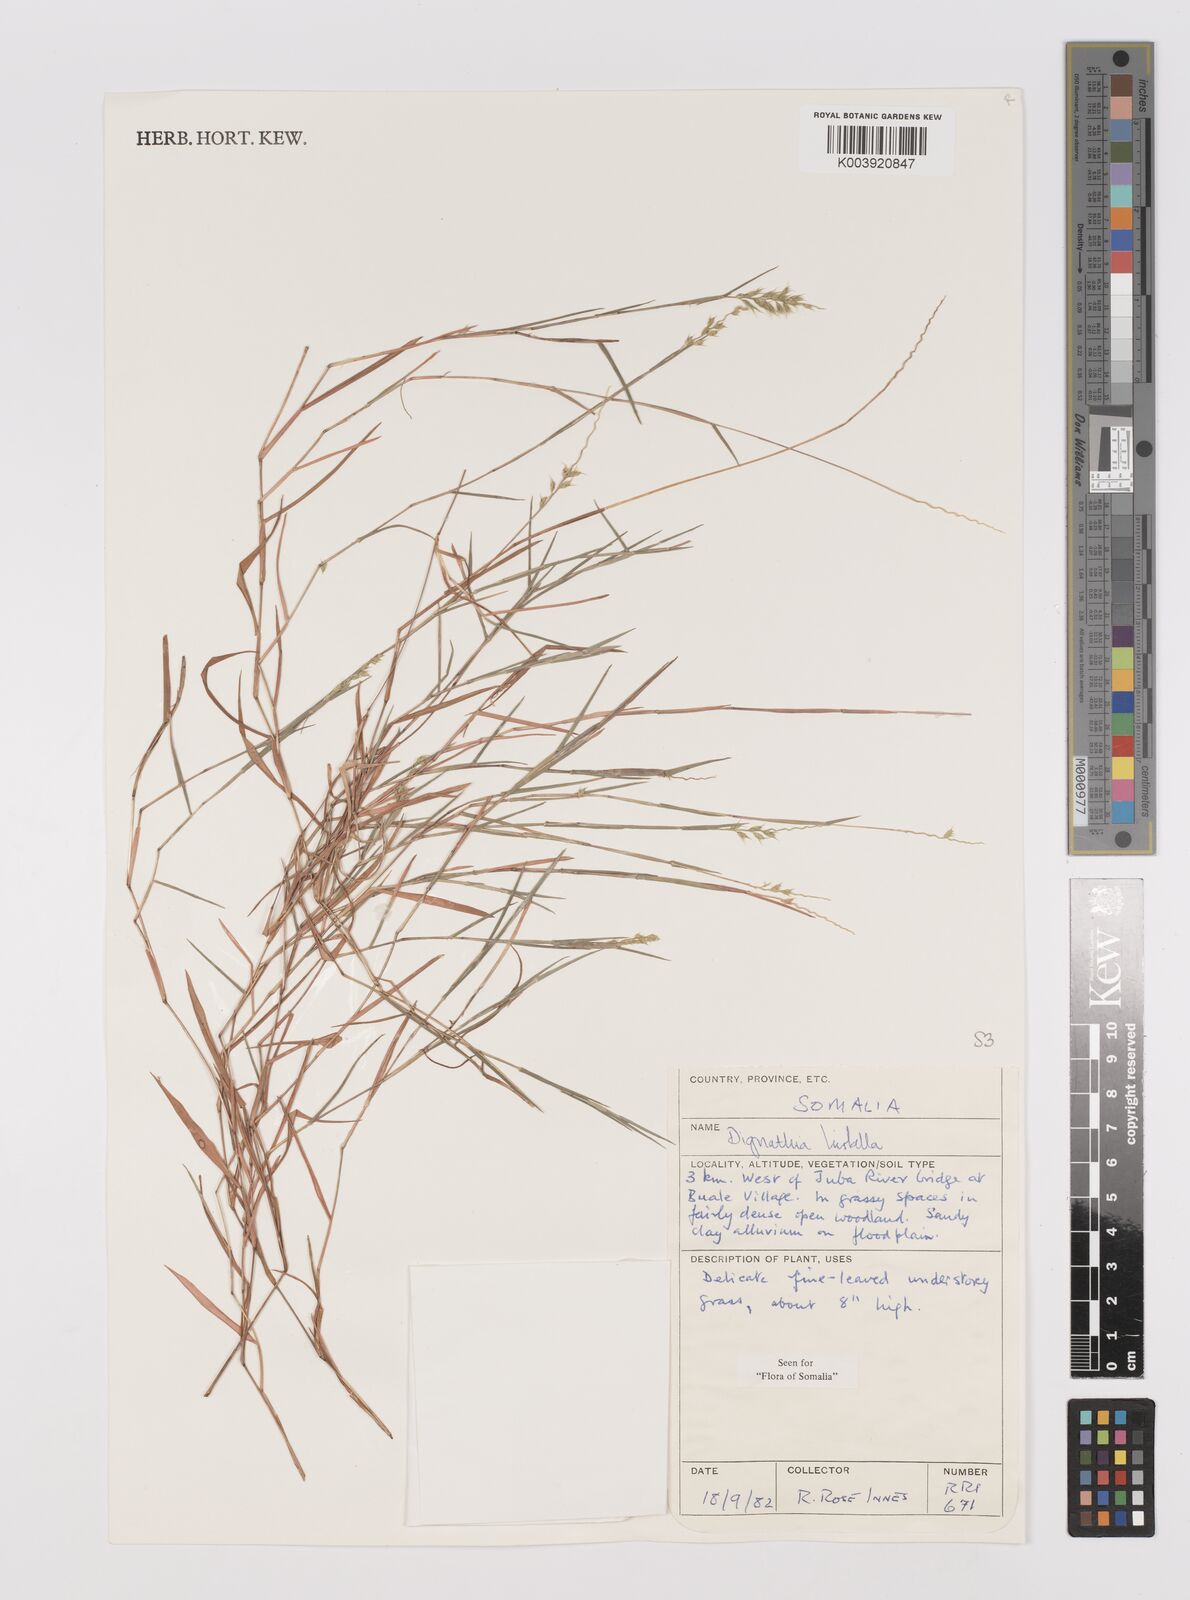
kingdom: Plantae
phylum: Tracheophyta
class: Liliopsida
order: Poales
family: Poaceae
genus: Dignathia
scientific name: Dignathia hirtella
